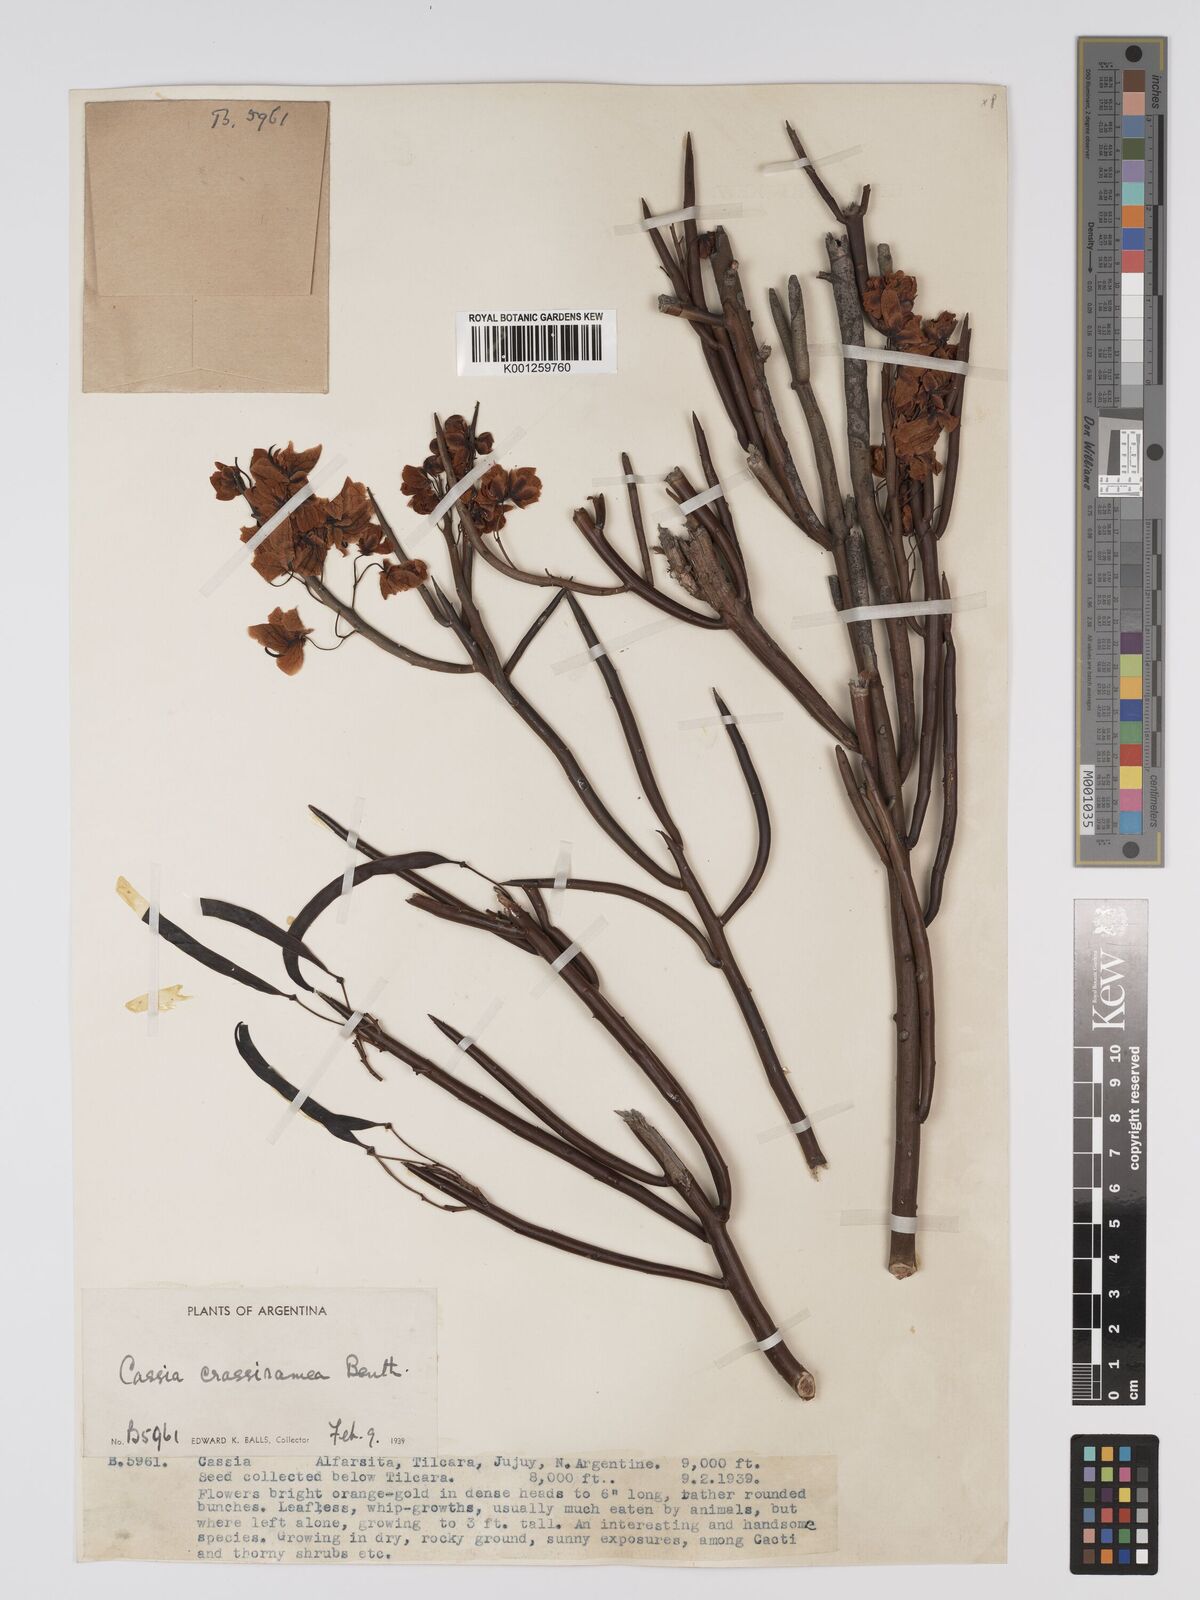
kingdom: Plantae
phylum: Tracheophyta
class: Magnoliopsida
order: Fabales
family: Fabaceae
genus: Senna
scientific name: Senna crassiramea
